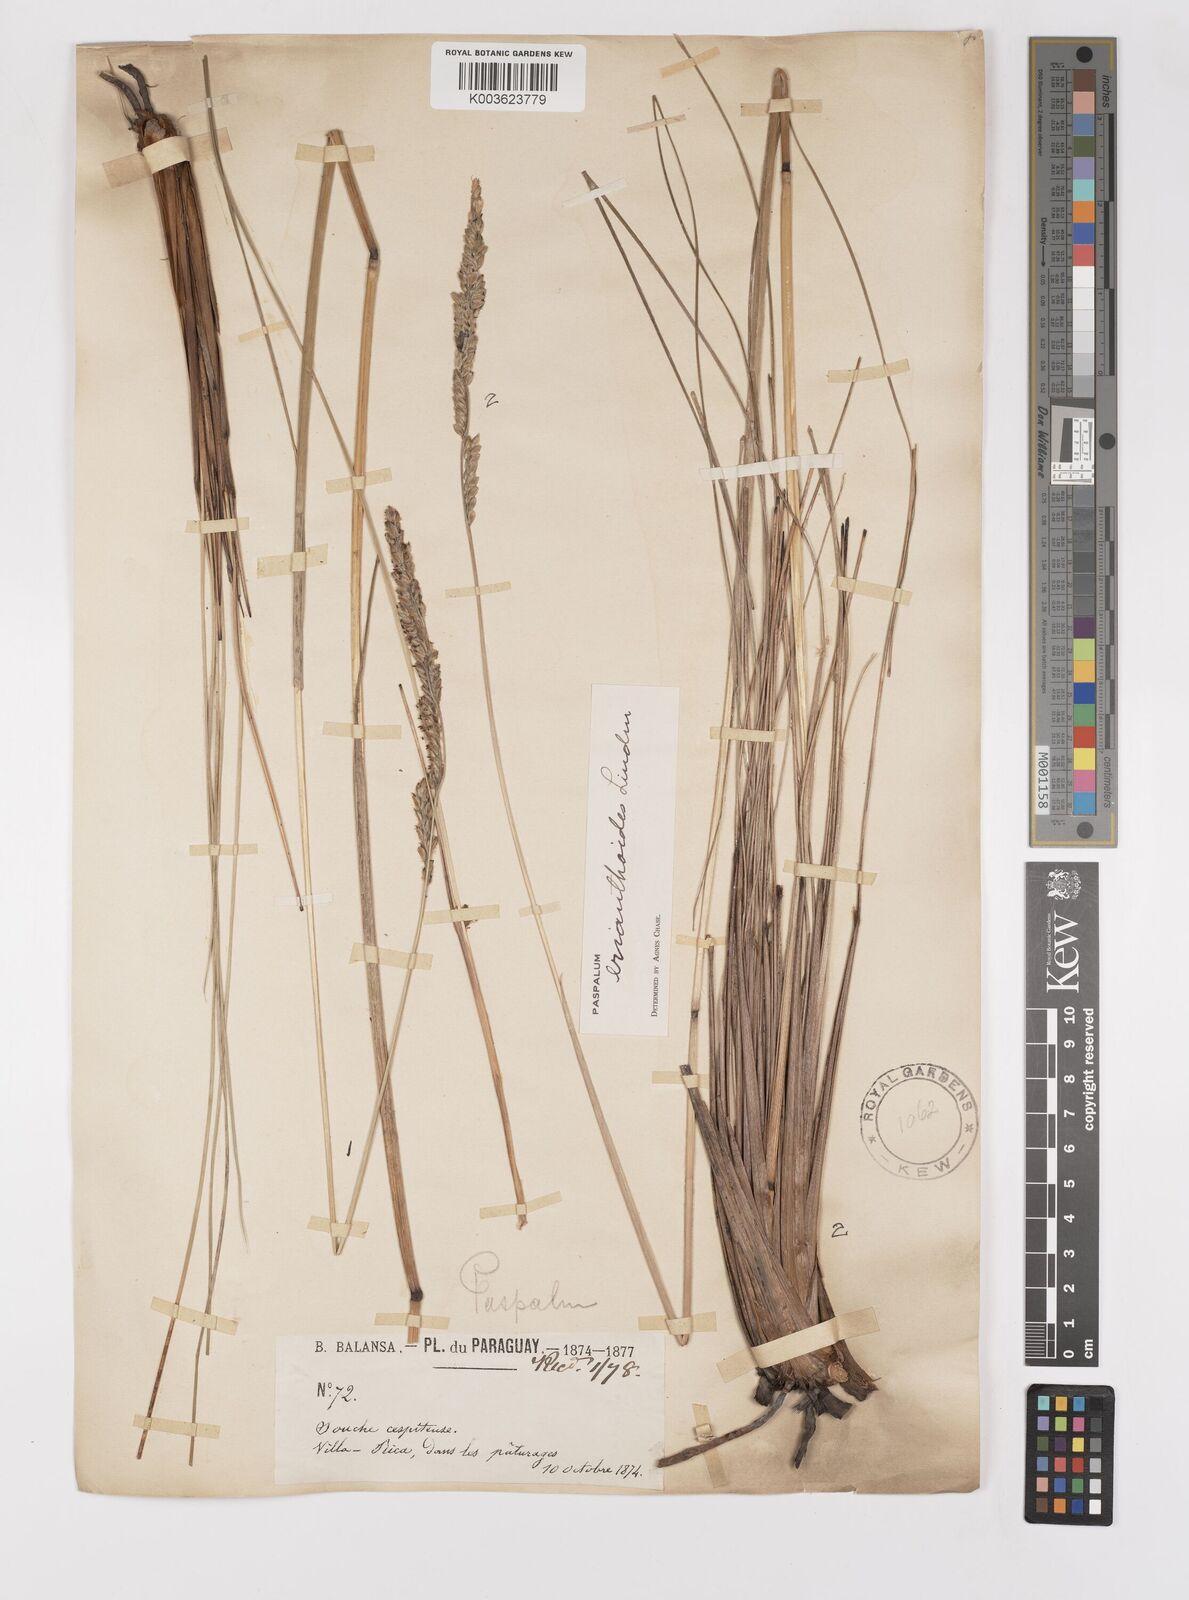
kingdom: Plantae
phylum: Tracheophyta
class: Liliopsida
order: Poales
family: Poaceae
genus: Paspalum
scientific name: Paspalum erianthoides
